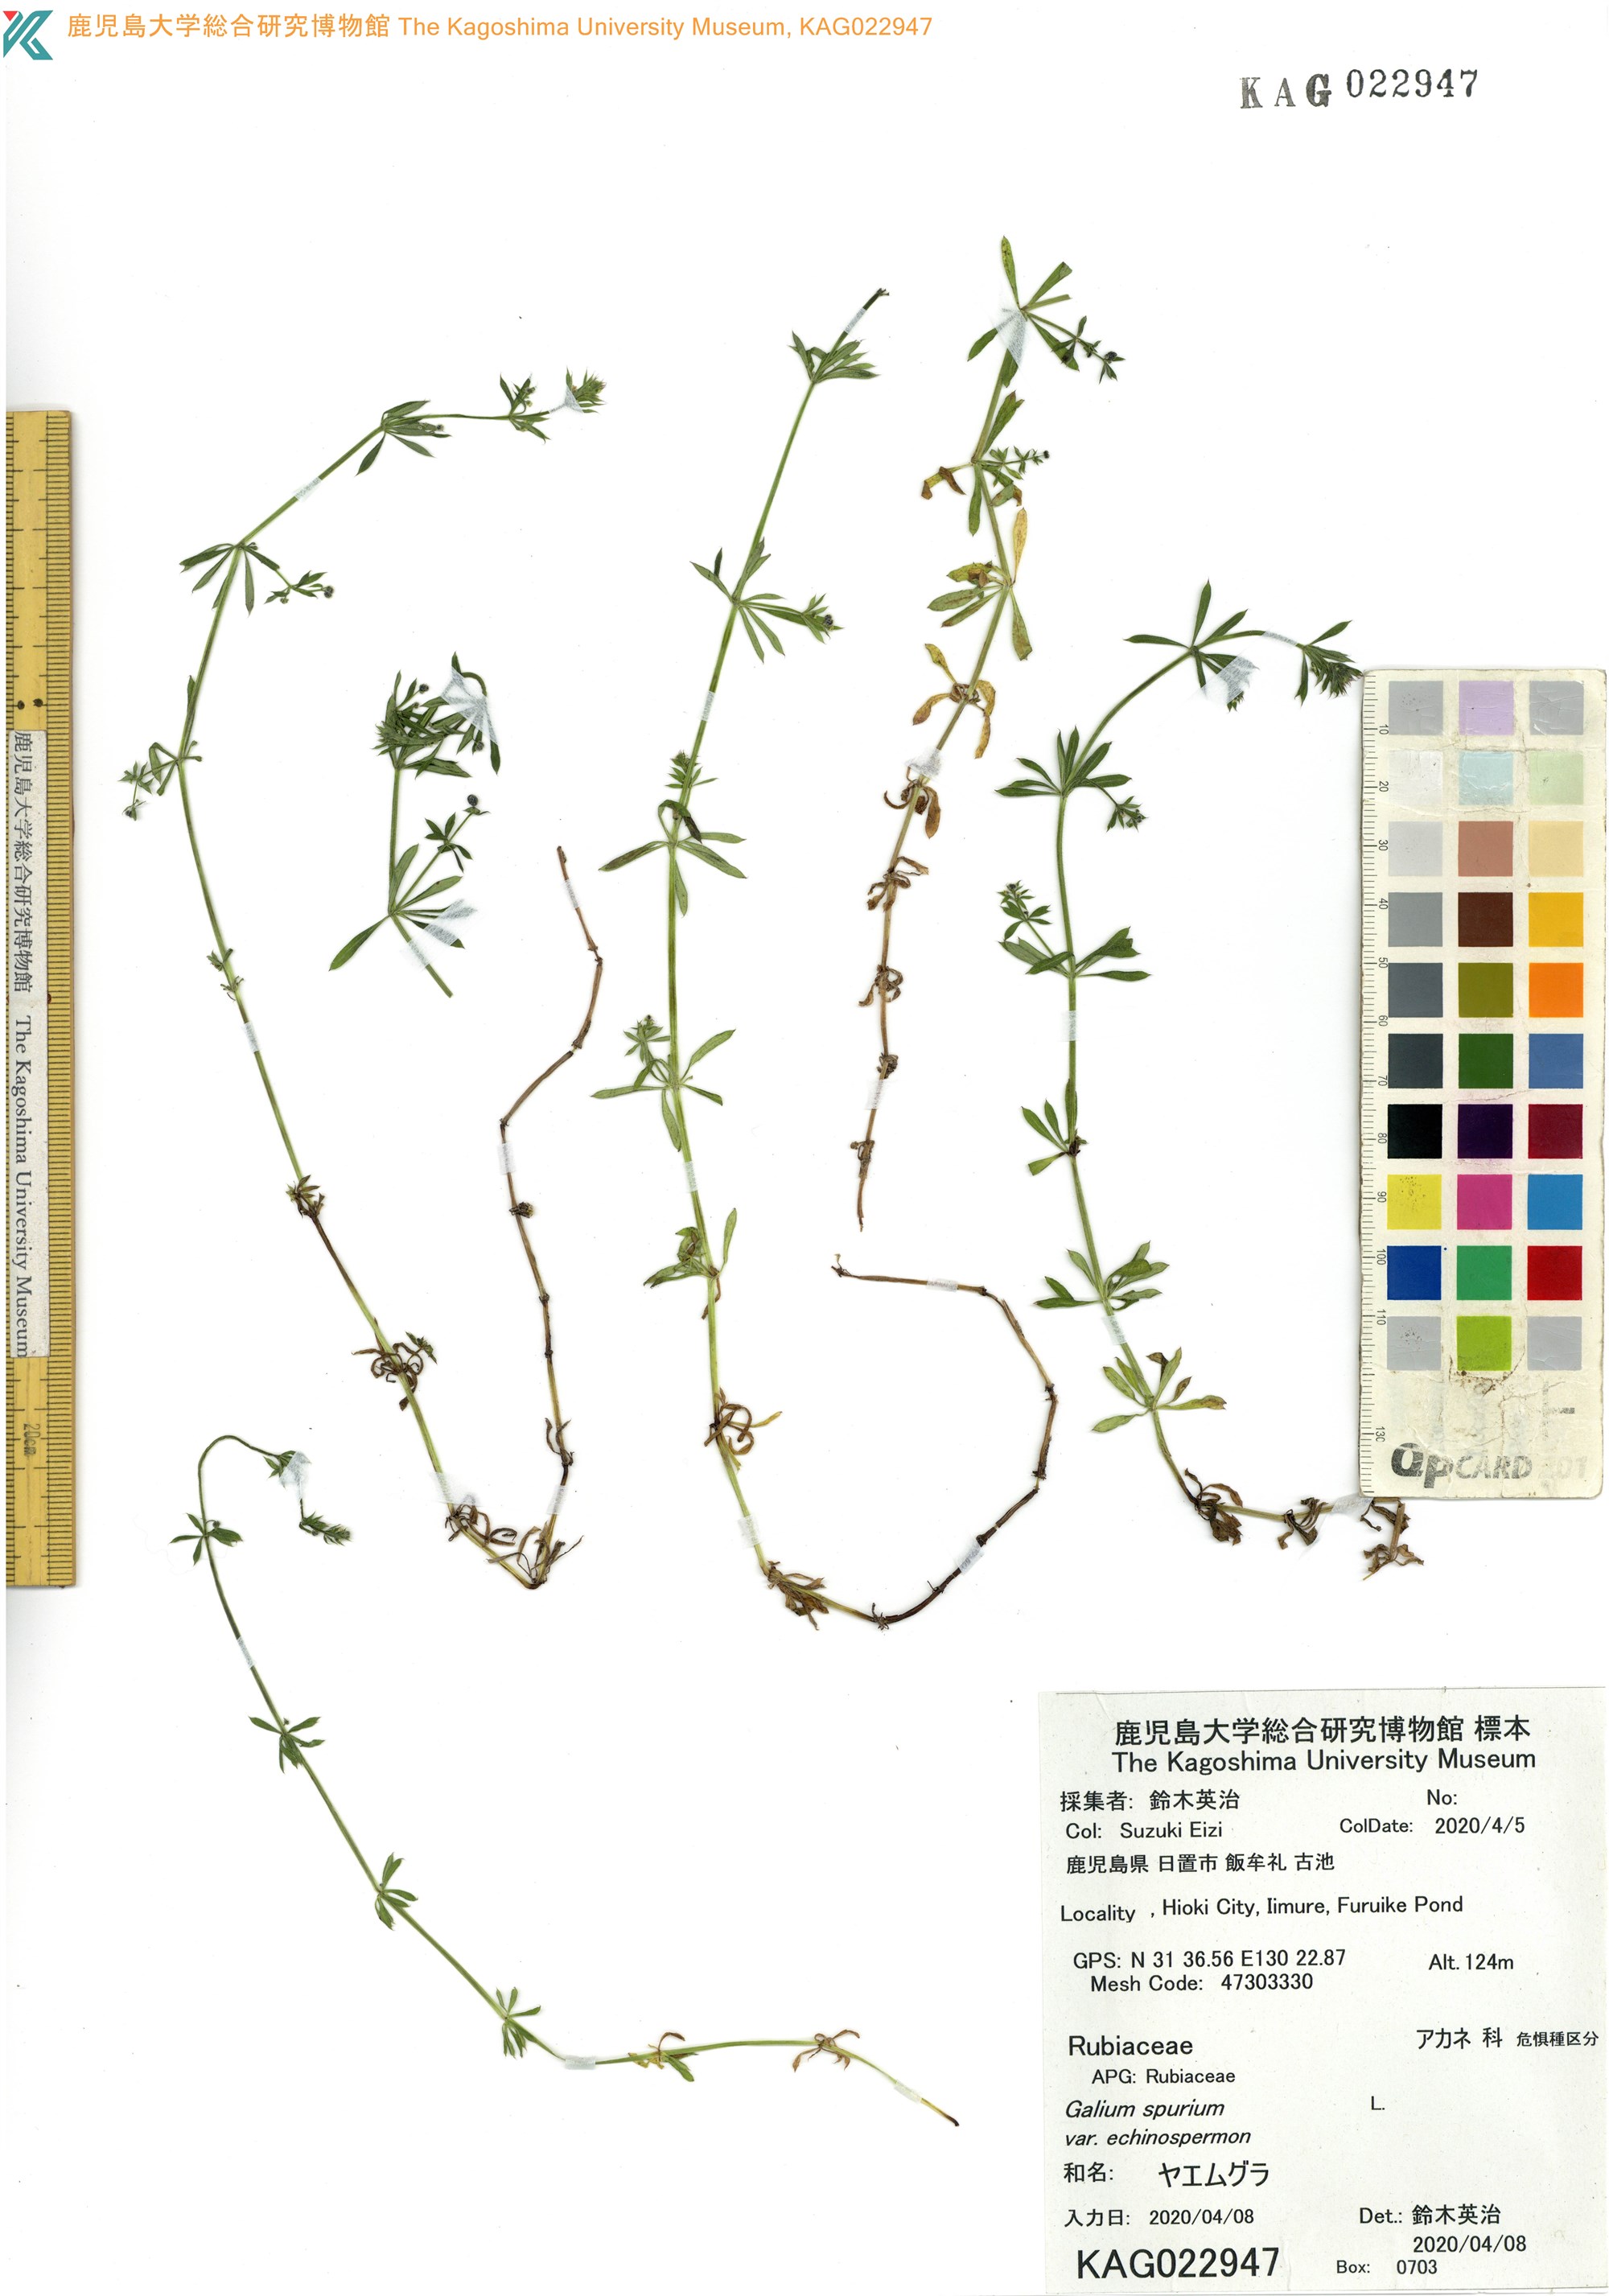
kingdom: Plantae
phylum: Tracheophyta
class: Magnoliopsida
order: Gentianales
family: Rubiaceae
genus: Galium
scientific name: Galium
